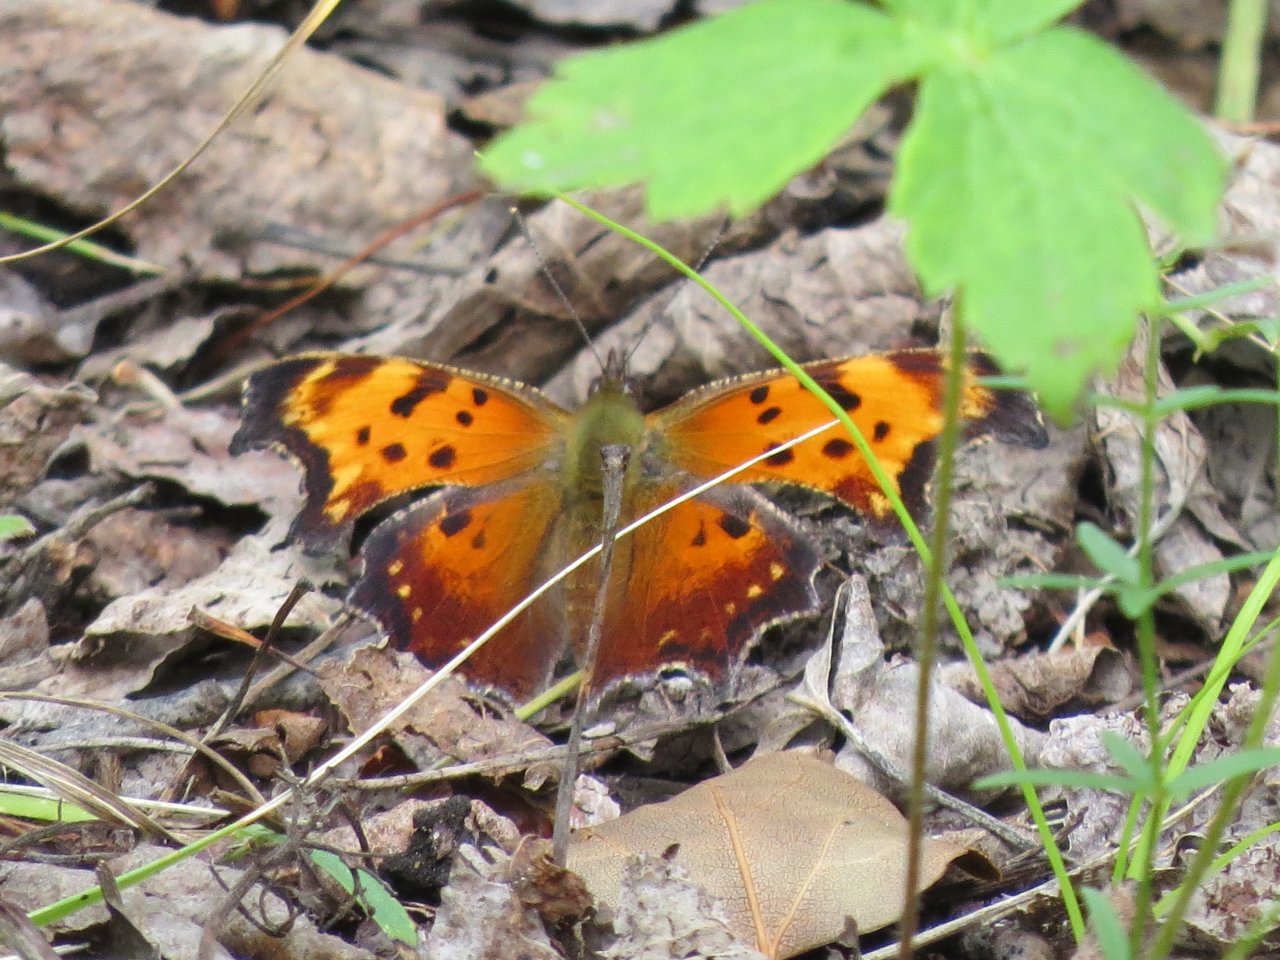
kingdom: Animalia
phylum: Arthropoda
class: Insecta
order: Lepidoptera
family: Nymphalidae
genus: Polygonia
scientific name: Polygonia progne
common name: Gray Comma
